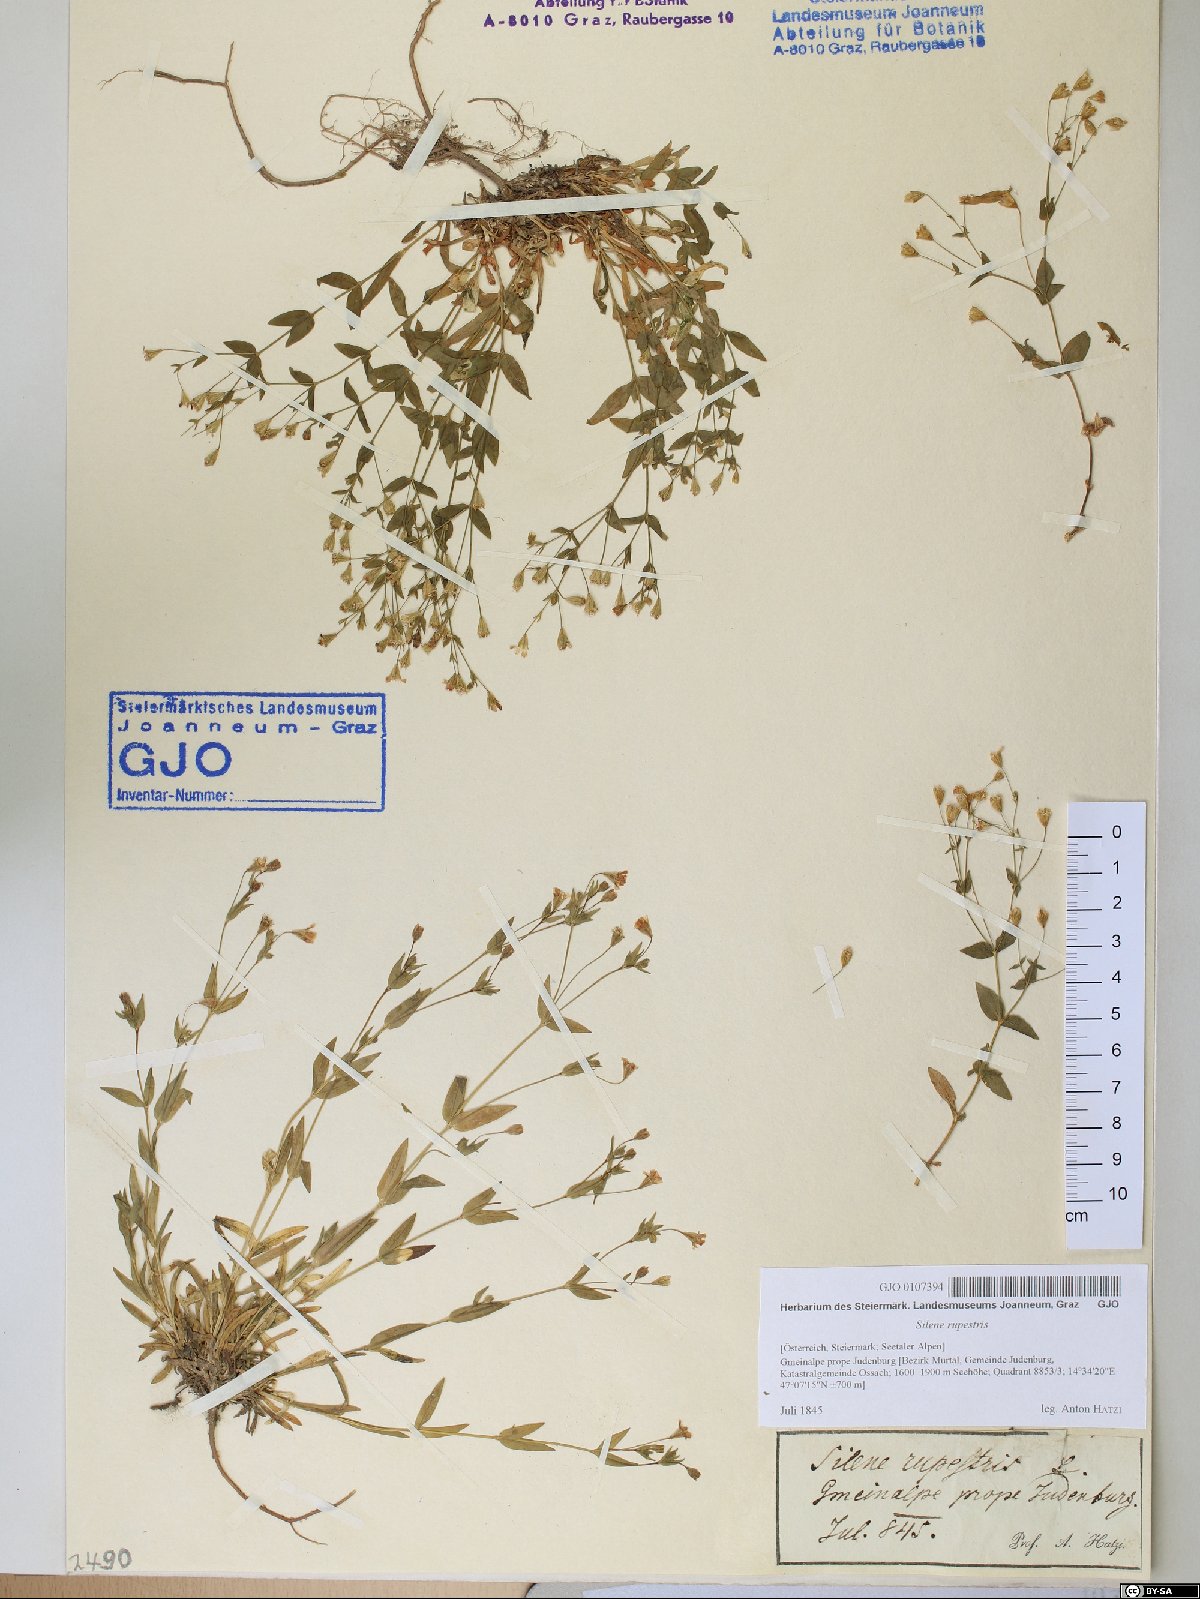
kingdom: Plantae
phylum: Tracheophyta
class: Magnoliopsida
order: Caryophyllales
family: Caryophyllaceae
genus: Atocion
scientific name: Atocion rupestre
